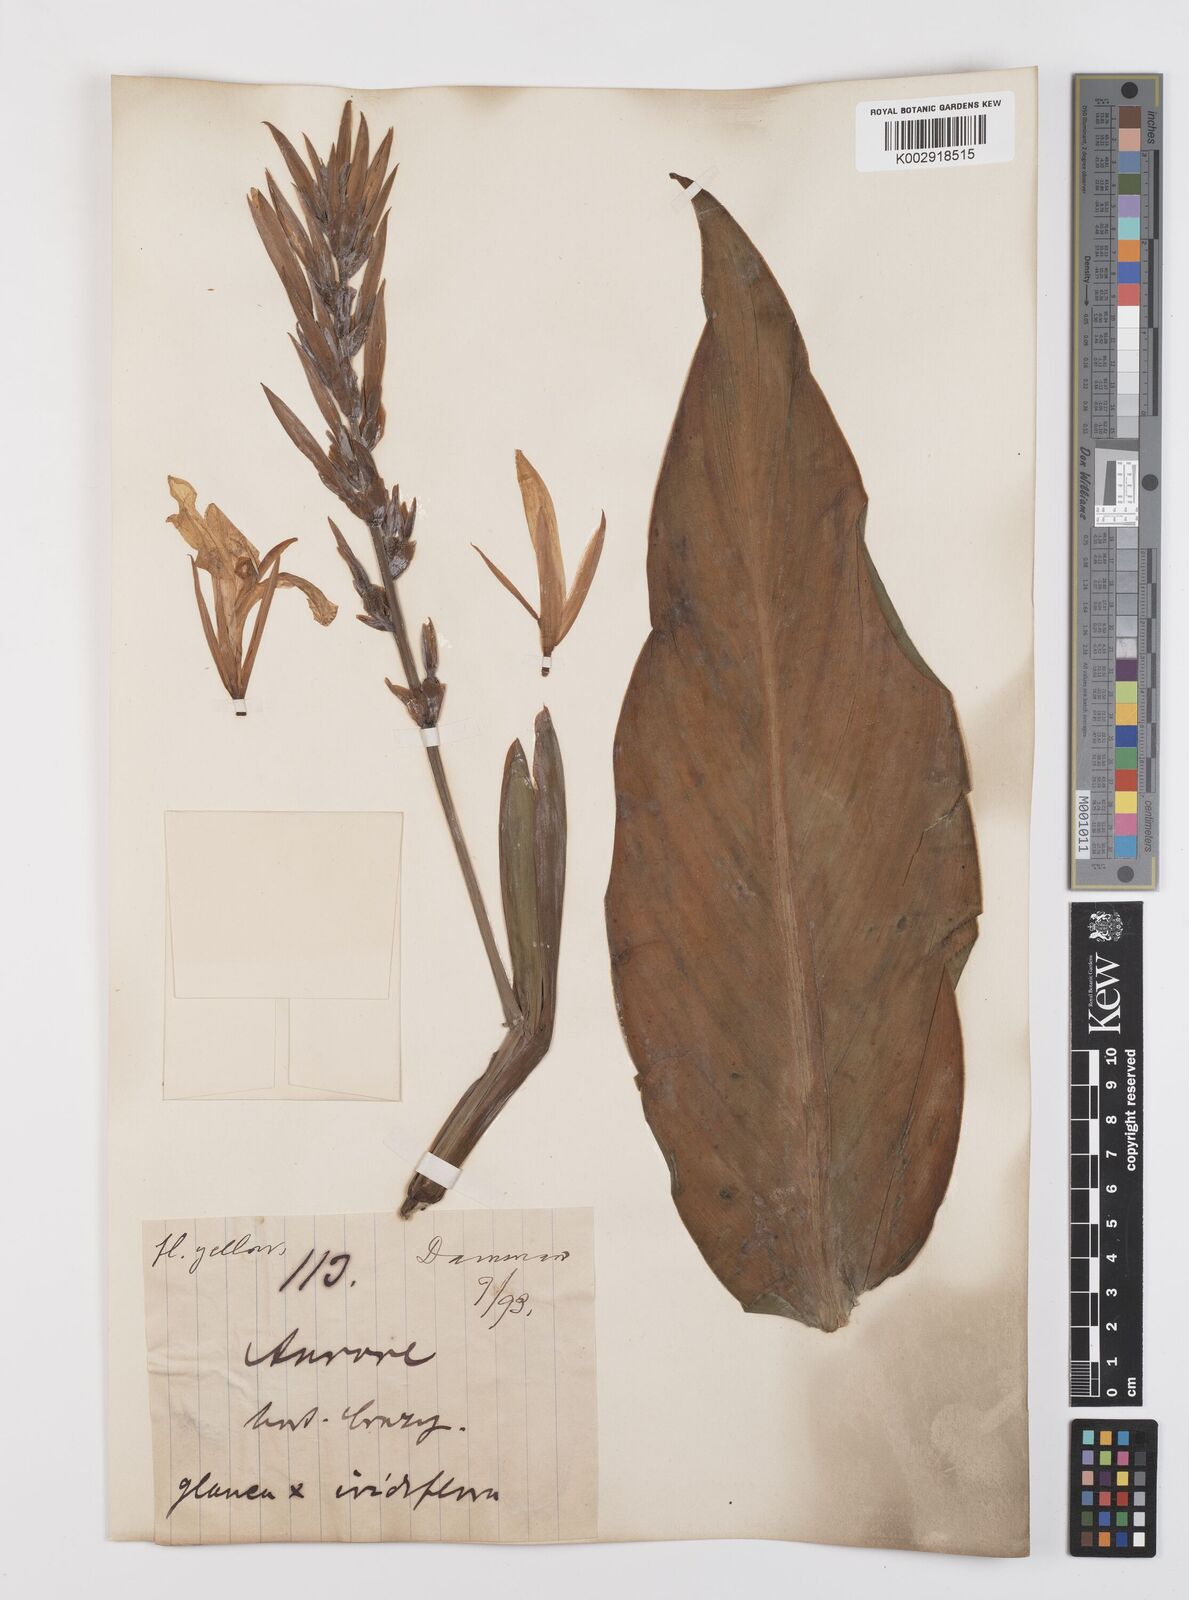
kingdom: Plantae
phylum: Tracheophyta
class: Liliopsida
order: Zingiberales
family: Cannaceae
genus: Canna
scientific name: Canna
